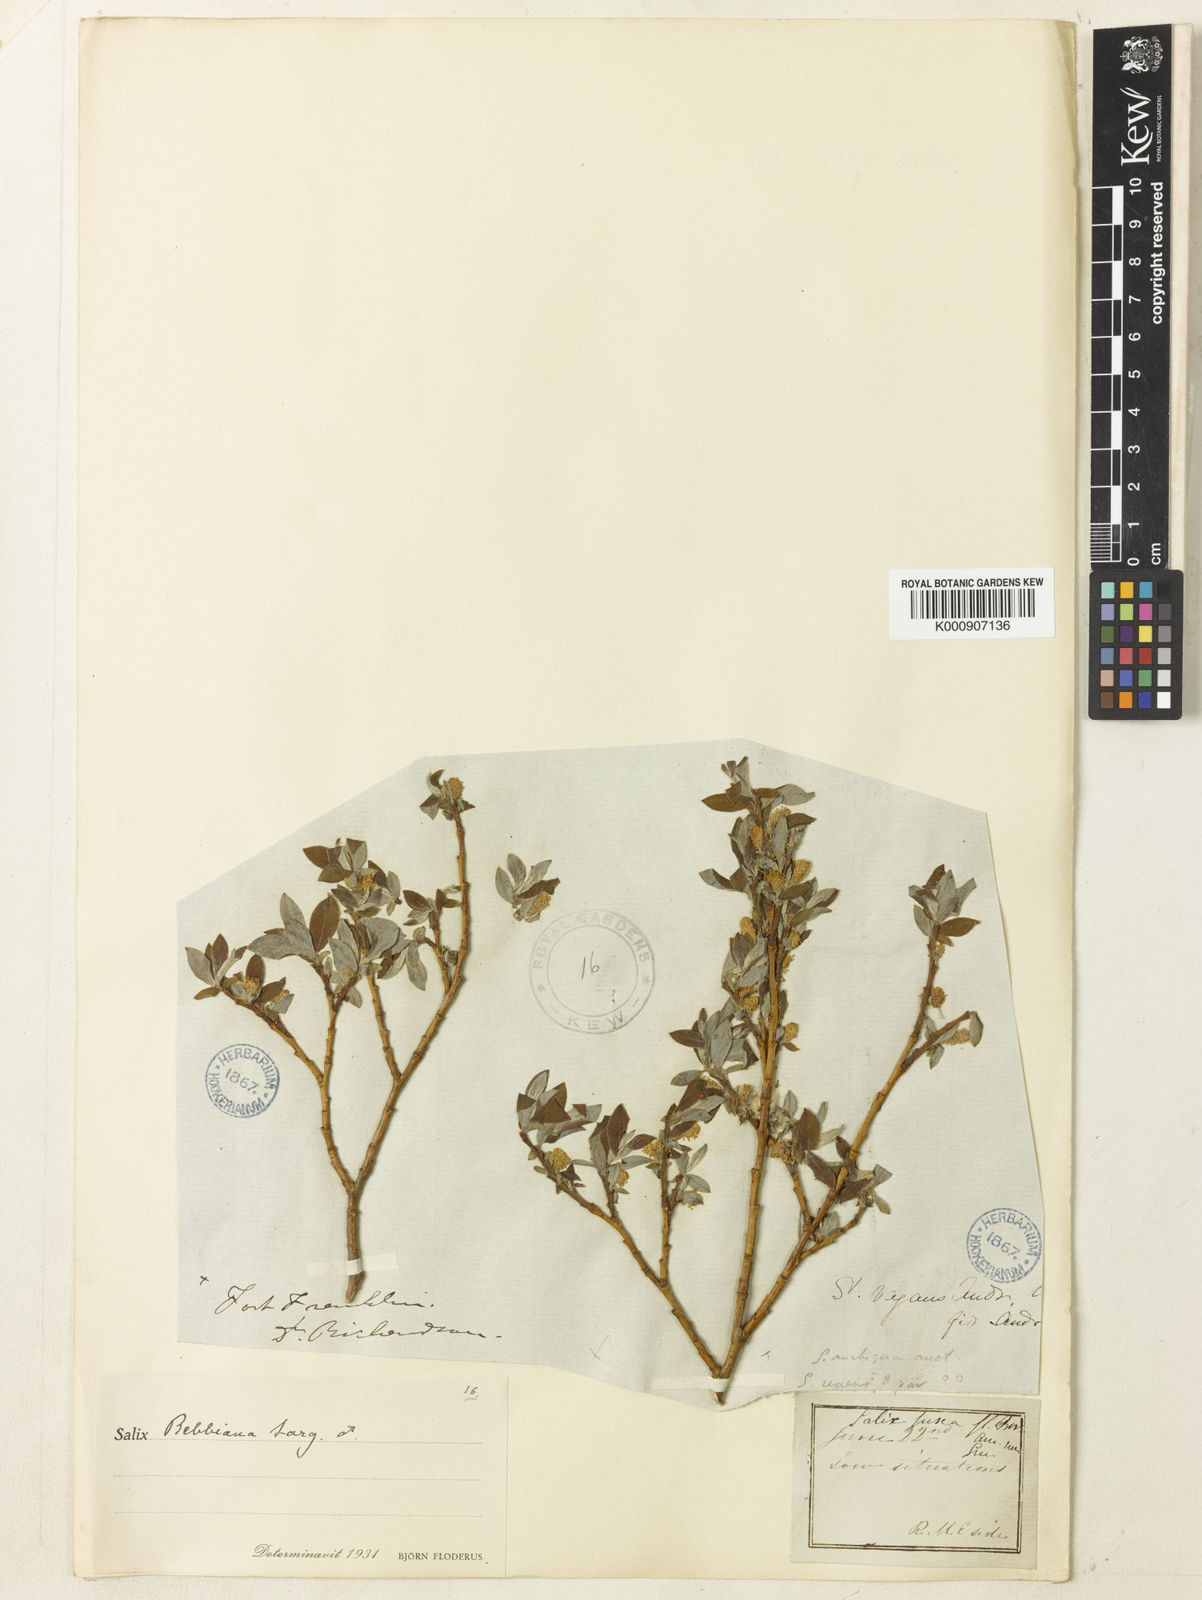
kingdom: Plantae
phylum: Tracheophyta
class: Magnoliopsida
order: Malpighiales
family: Salicaceae
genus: Salix
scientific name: Salix bebbiana
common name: Bebb's willow
